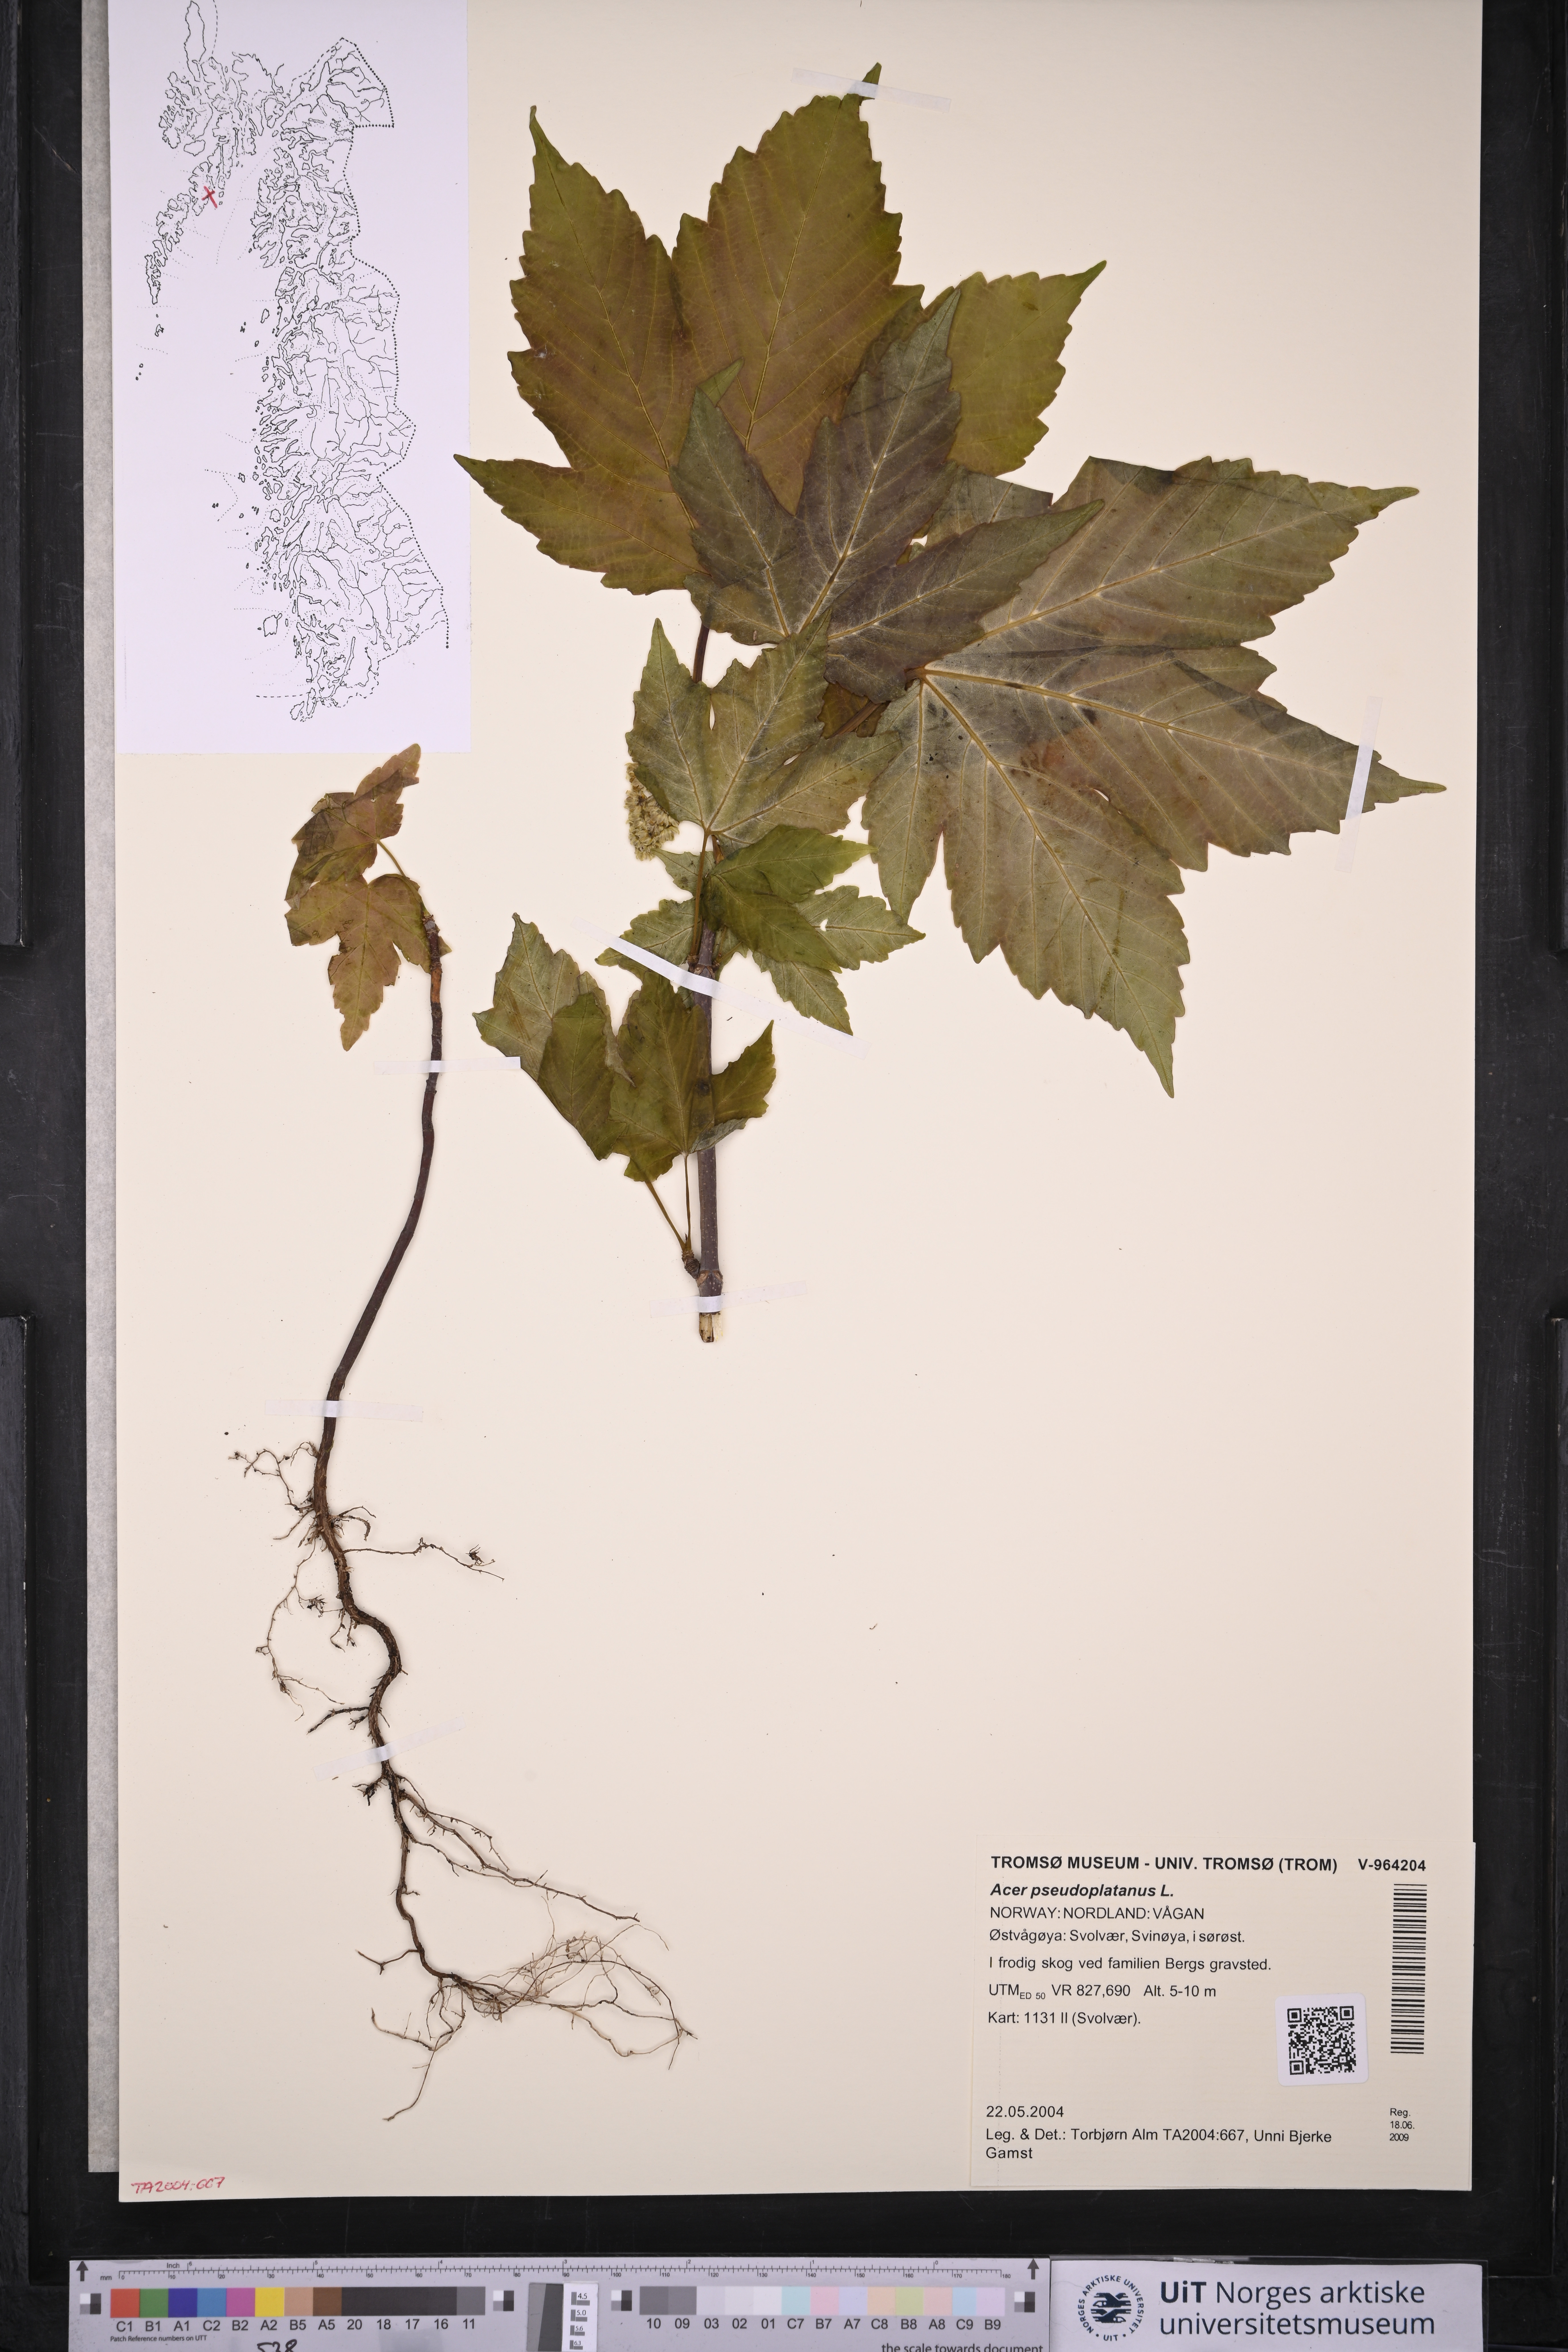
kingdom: Plantae
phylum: Tracheophyta
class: Magnoliopsida
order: Sapindales
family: Sapindaceae
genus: Acer
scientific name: Acer pseudoplatanus
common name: Sycamore
